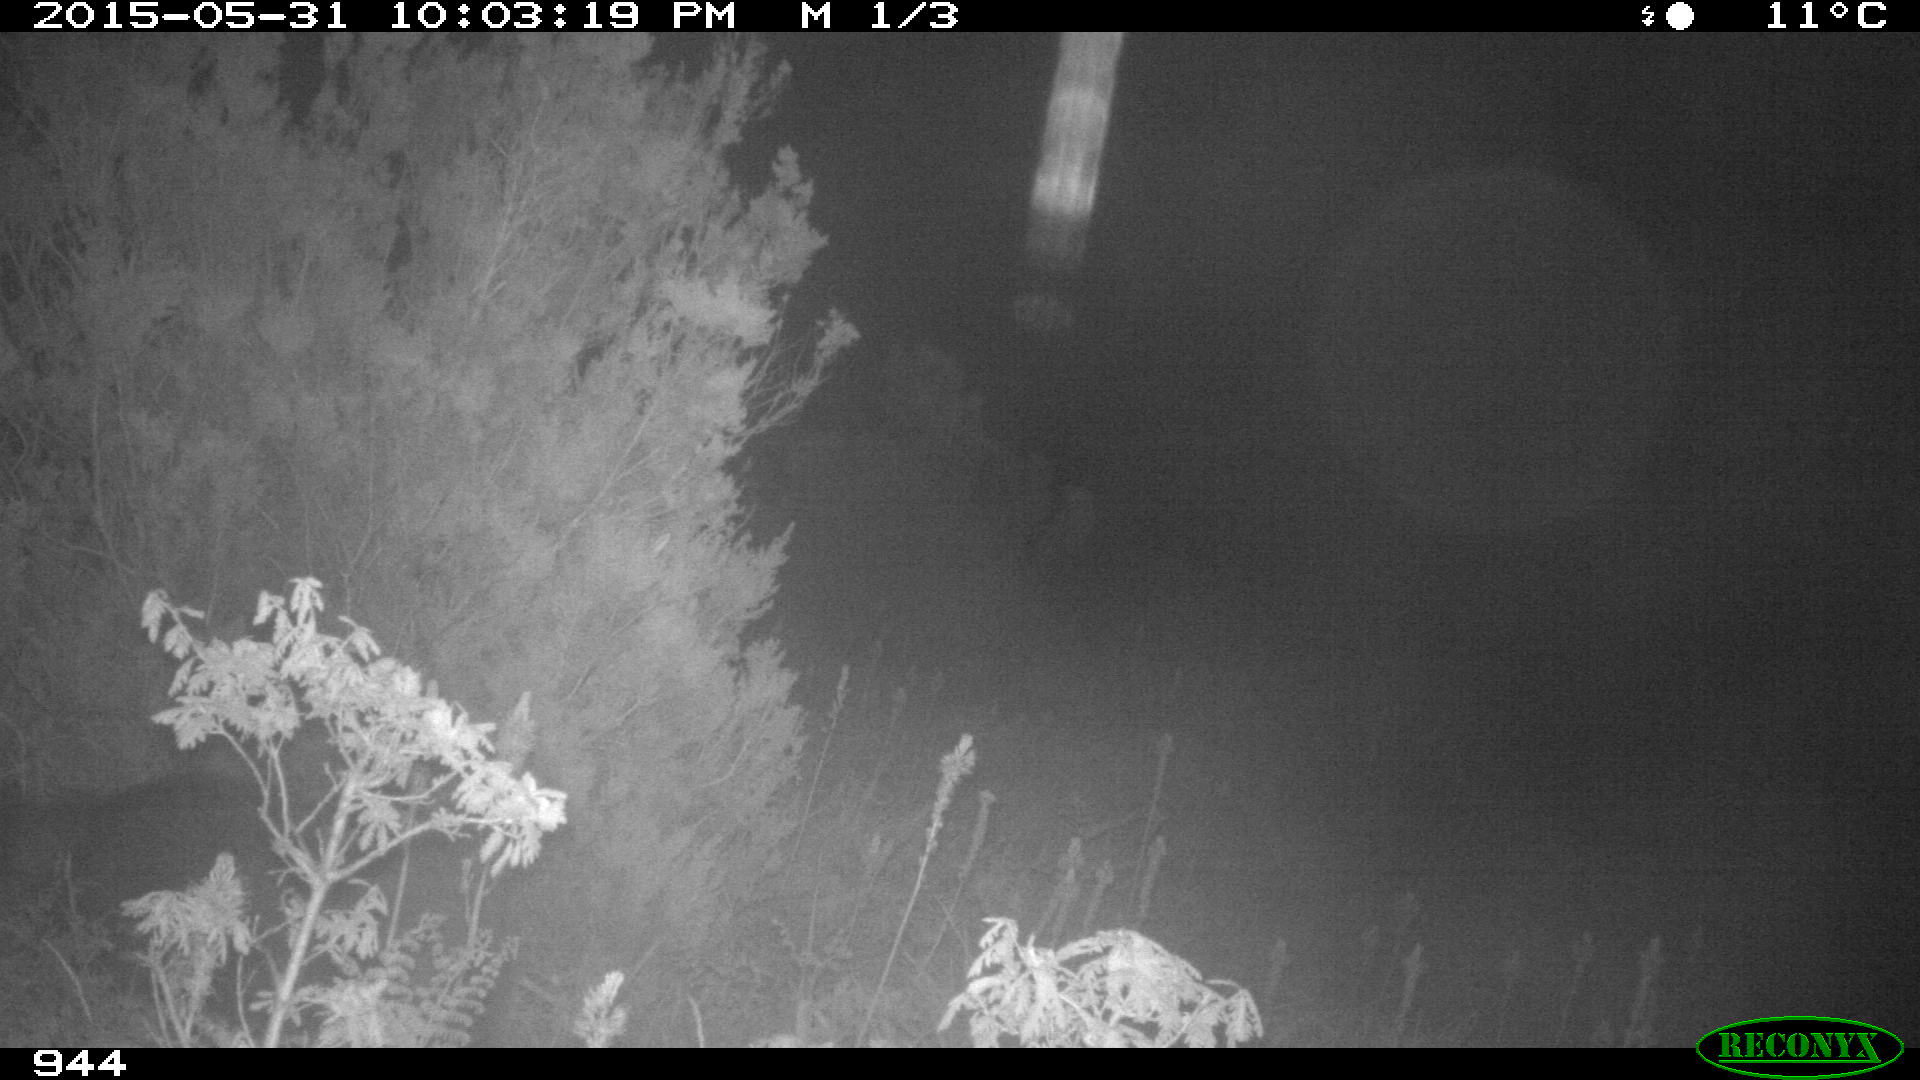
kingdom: Animalia
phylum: Chordata
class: Mammalia
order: Artiodactyla
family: Suidae
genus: Sus
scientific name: Sus scrofa
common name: Wild boar
